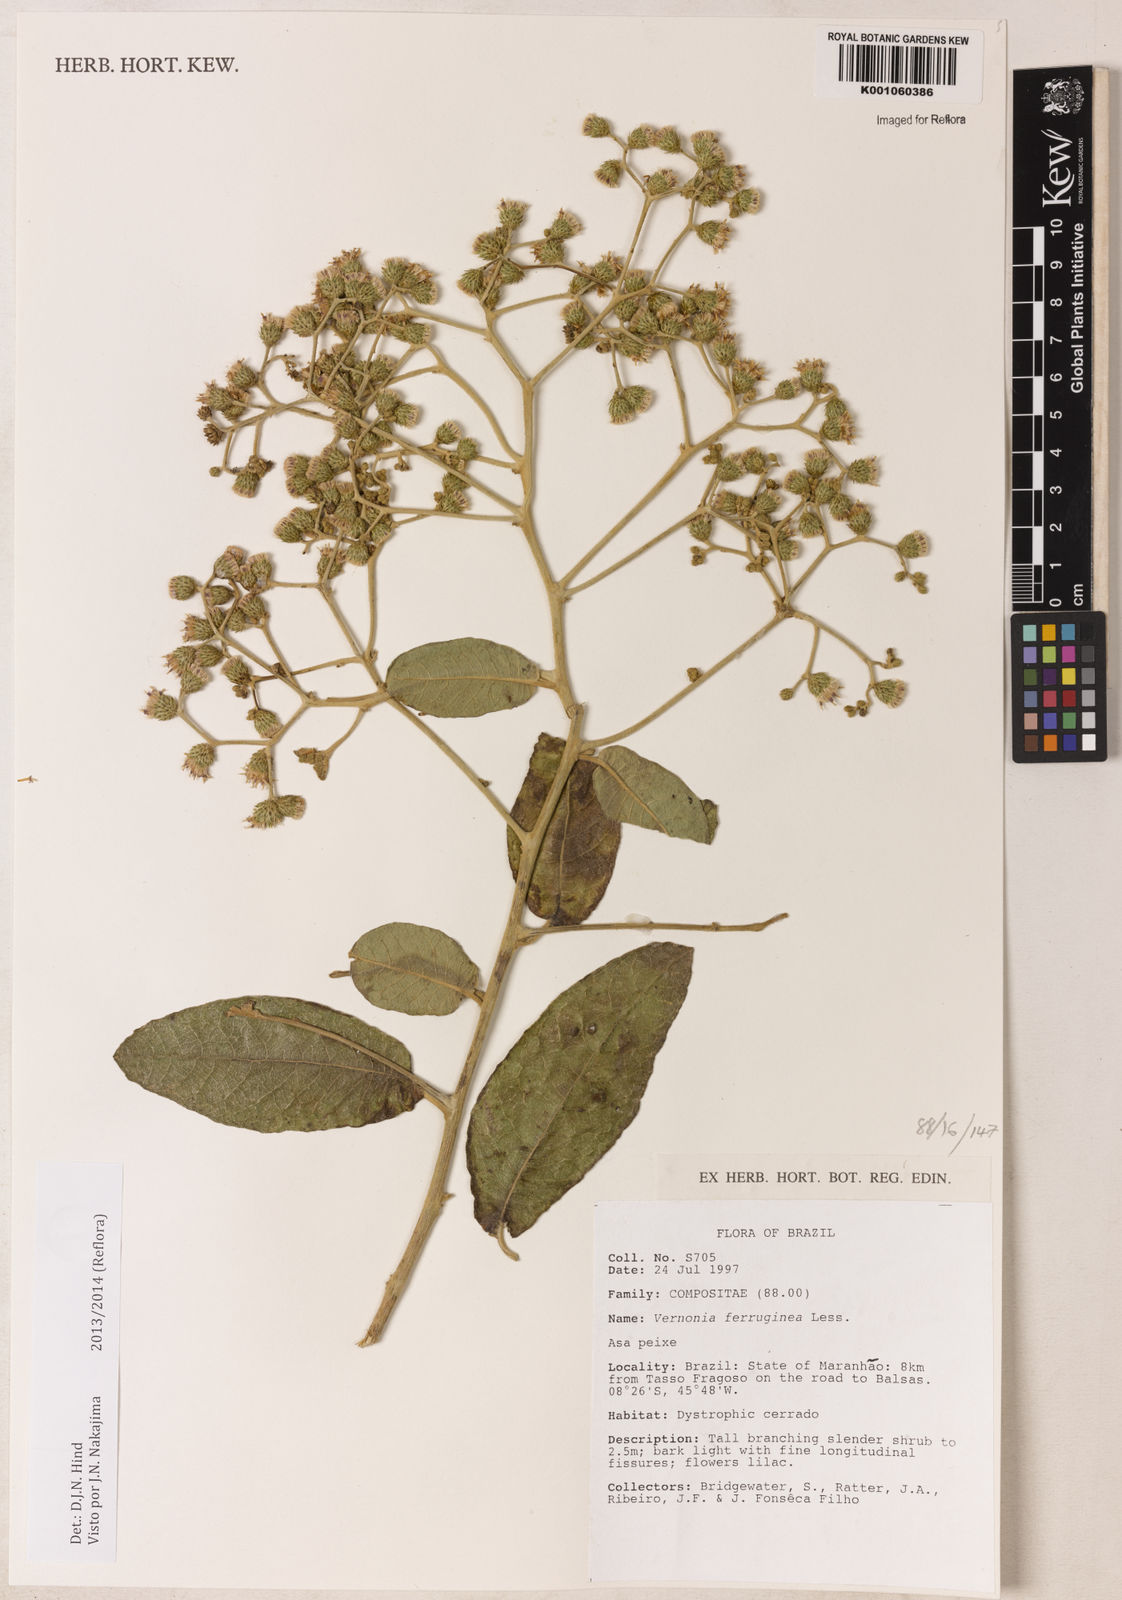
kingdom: Plantae
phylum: Tracheophyta
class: Magnoliopsida
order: Asterales
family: Asteraceae
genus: Vernonanthura
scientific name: Vernonanthura ferruginea
